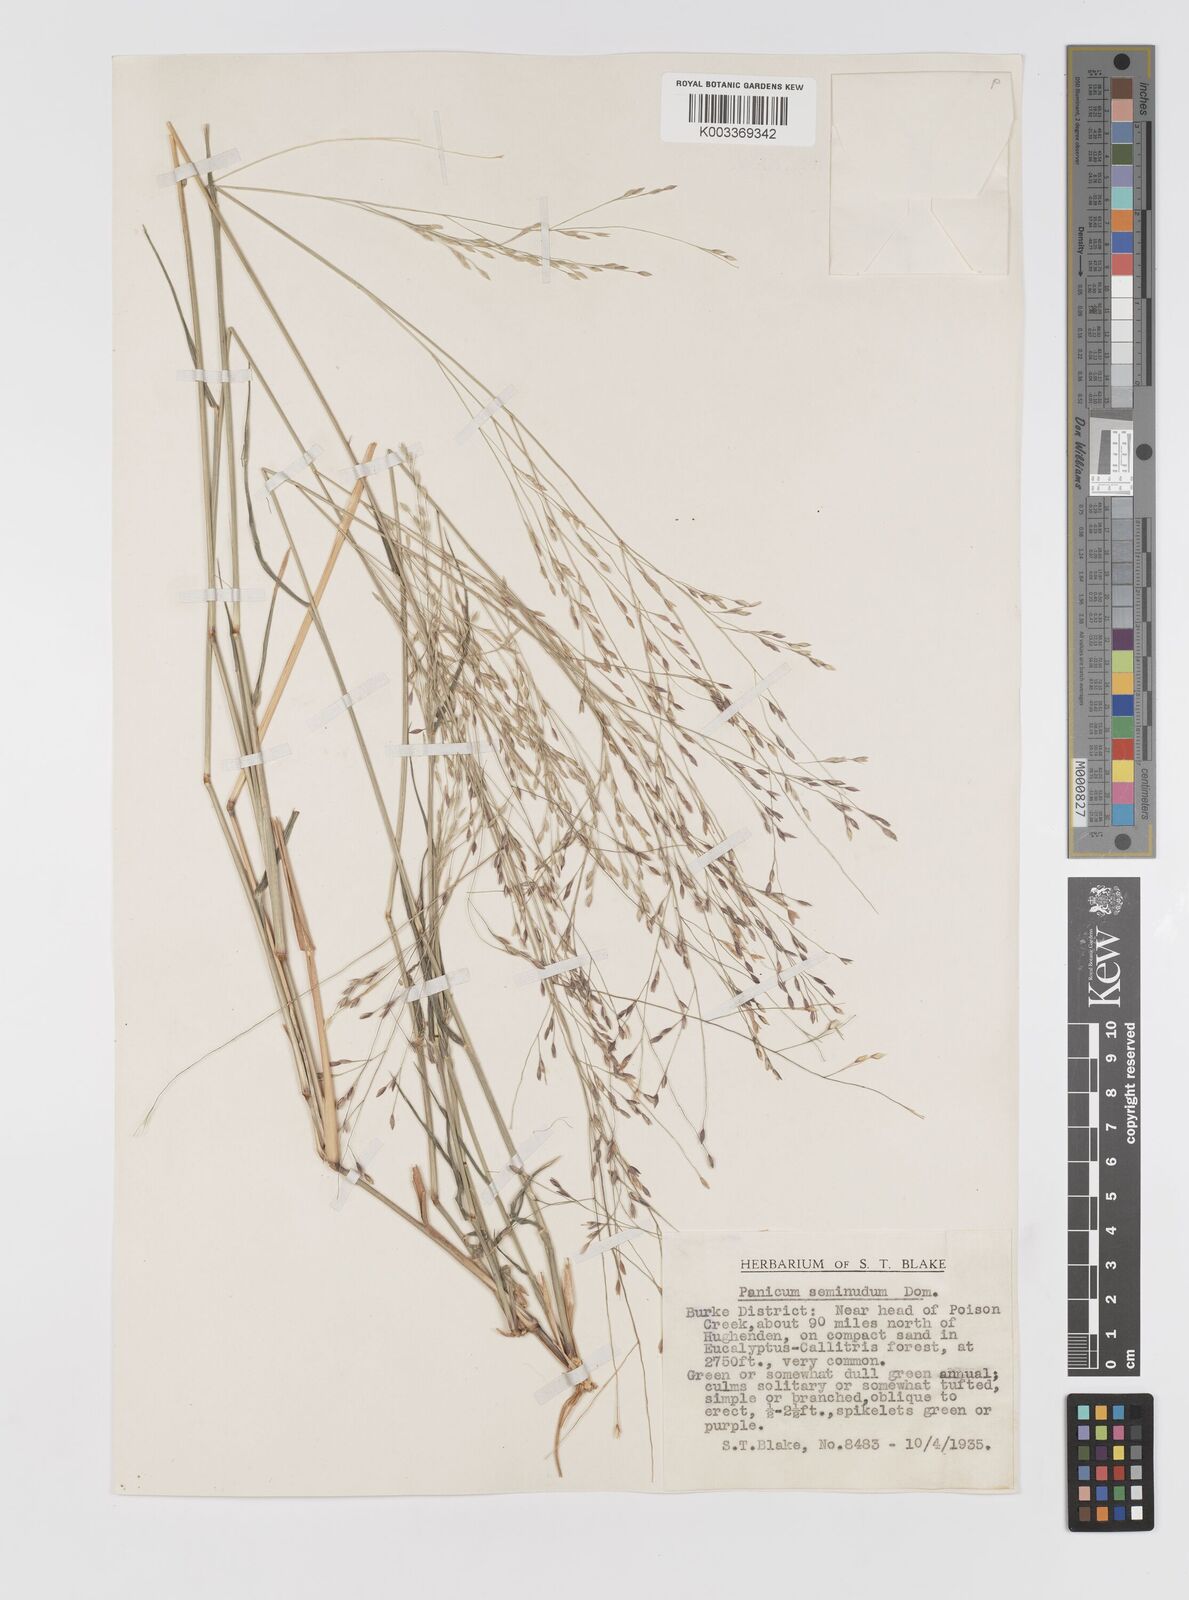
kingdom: Plantae
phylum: Tracheophyta
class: Liliopsida
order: Poales
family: Poaceae
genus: Panicum
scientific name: Panicum seminudum
